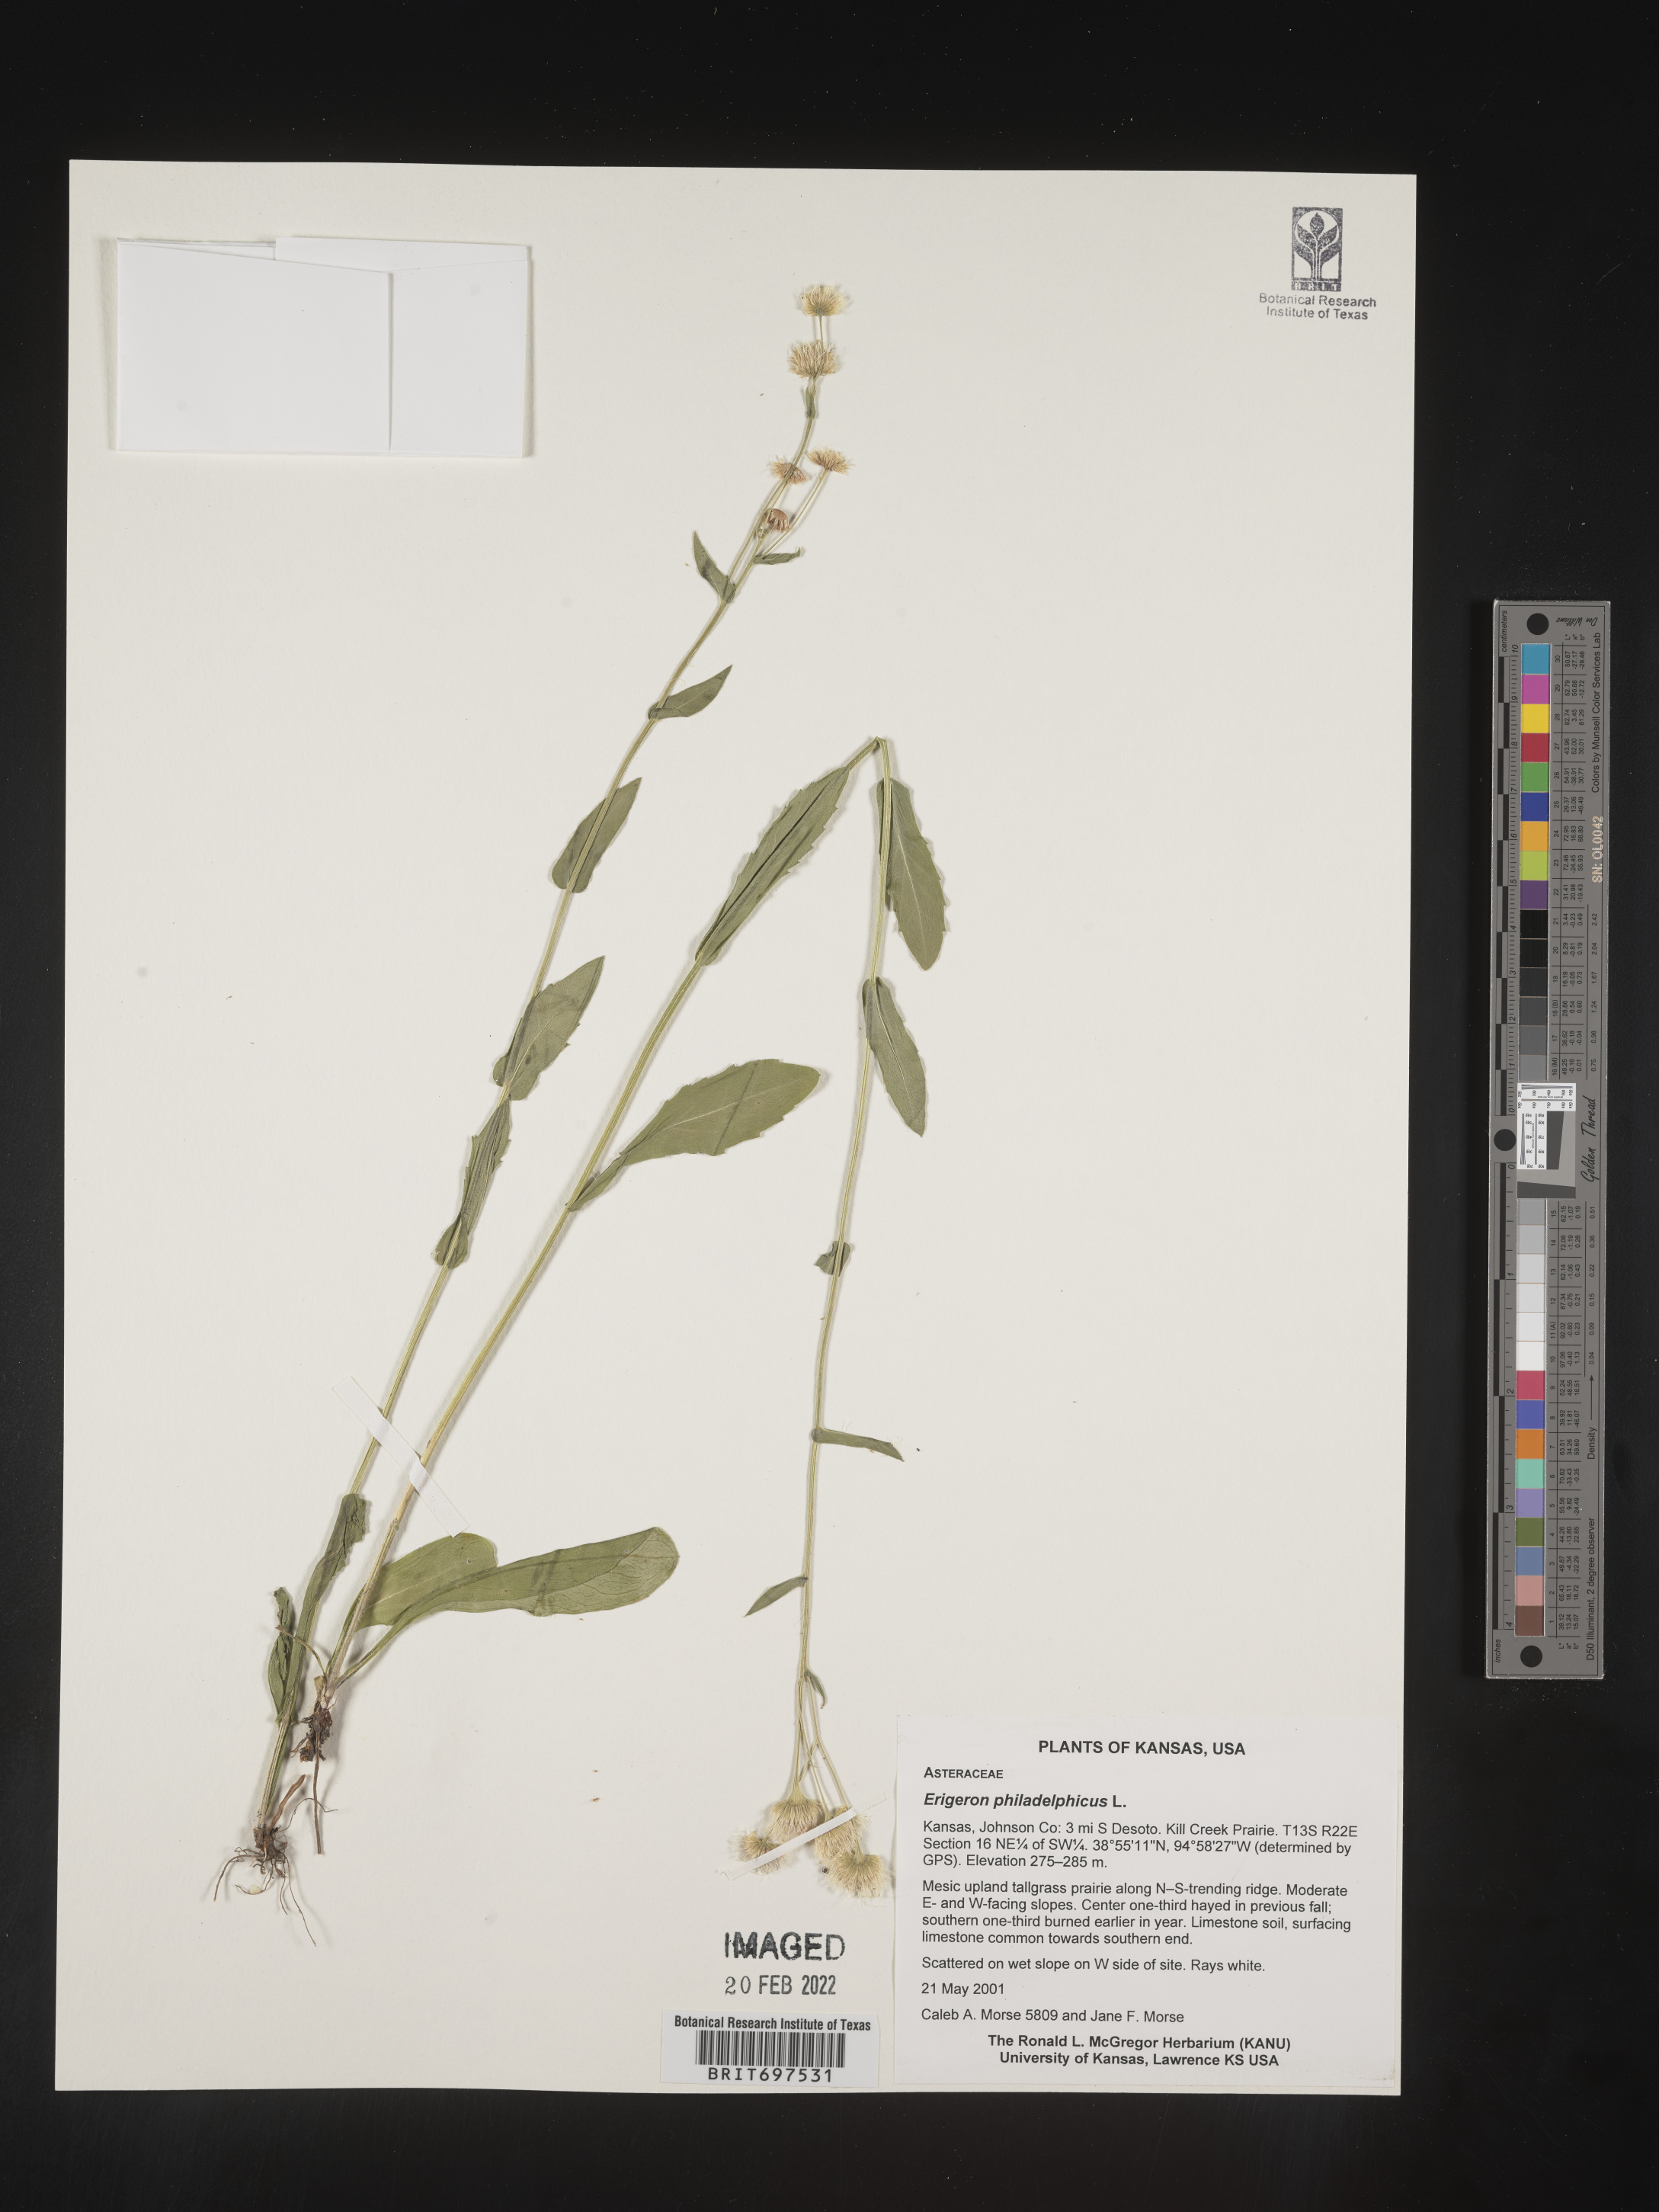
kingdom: Plantae
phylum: Tracheophyta
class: Magnoliopsida
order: Asterales
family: Asteraceae
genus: Erigeron
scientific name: Erigeron philadelphicus
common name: Robin's-plantain
